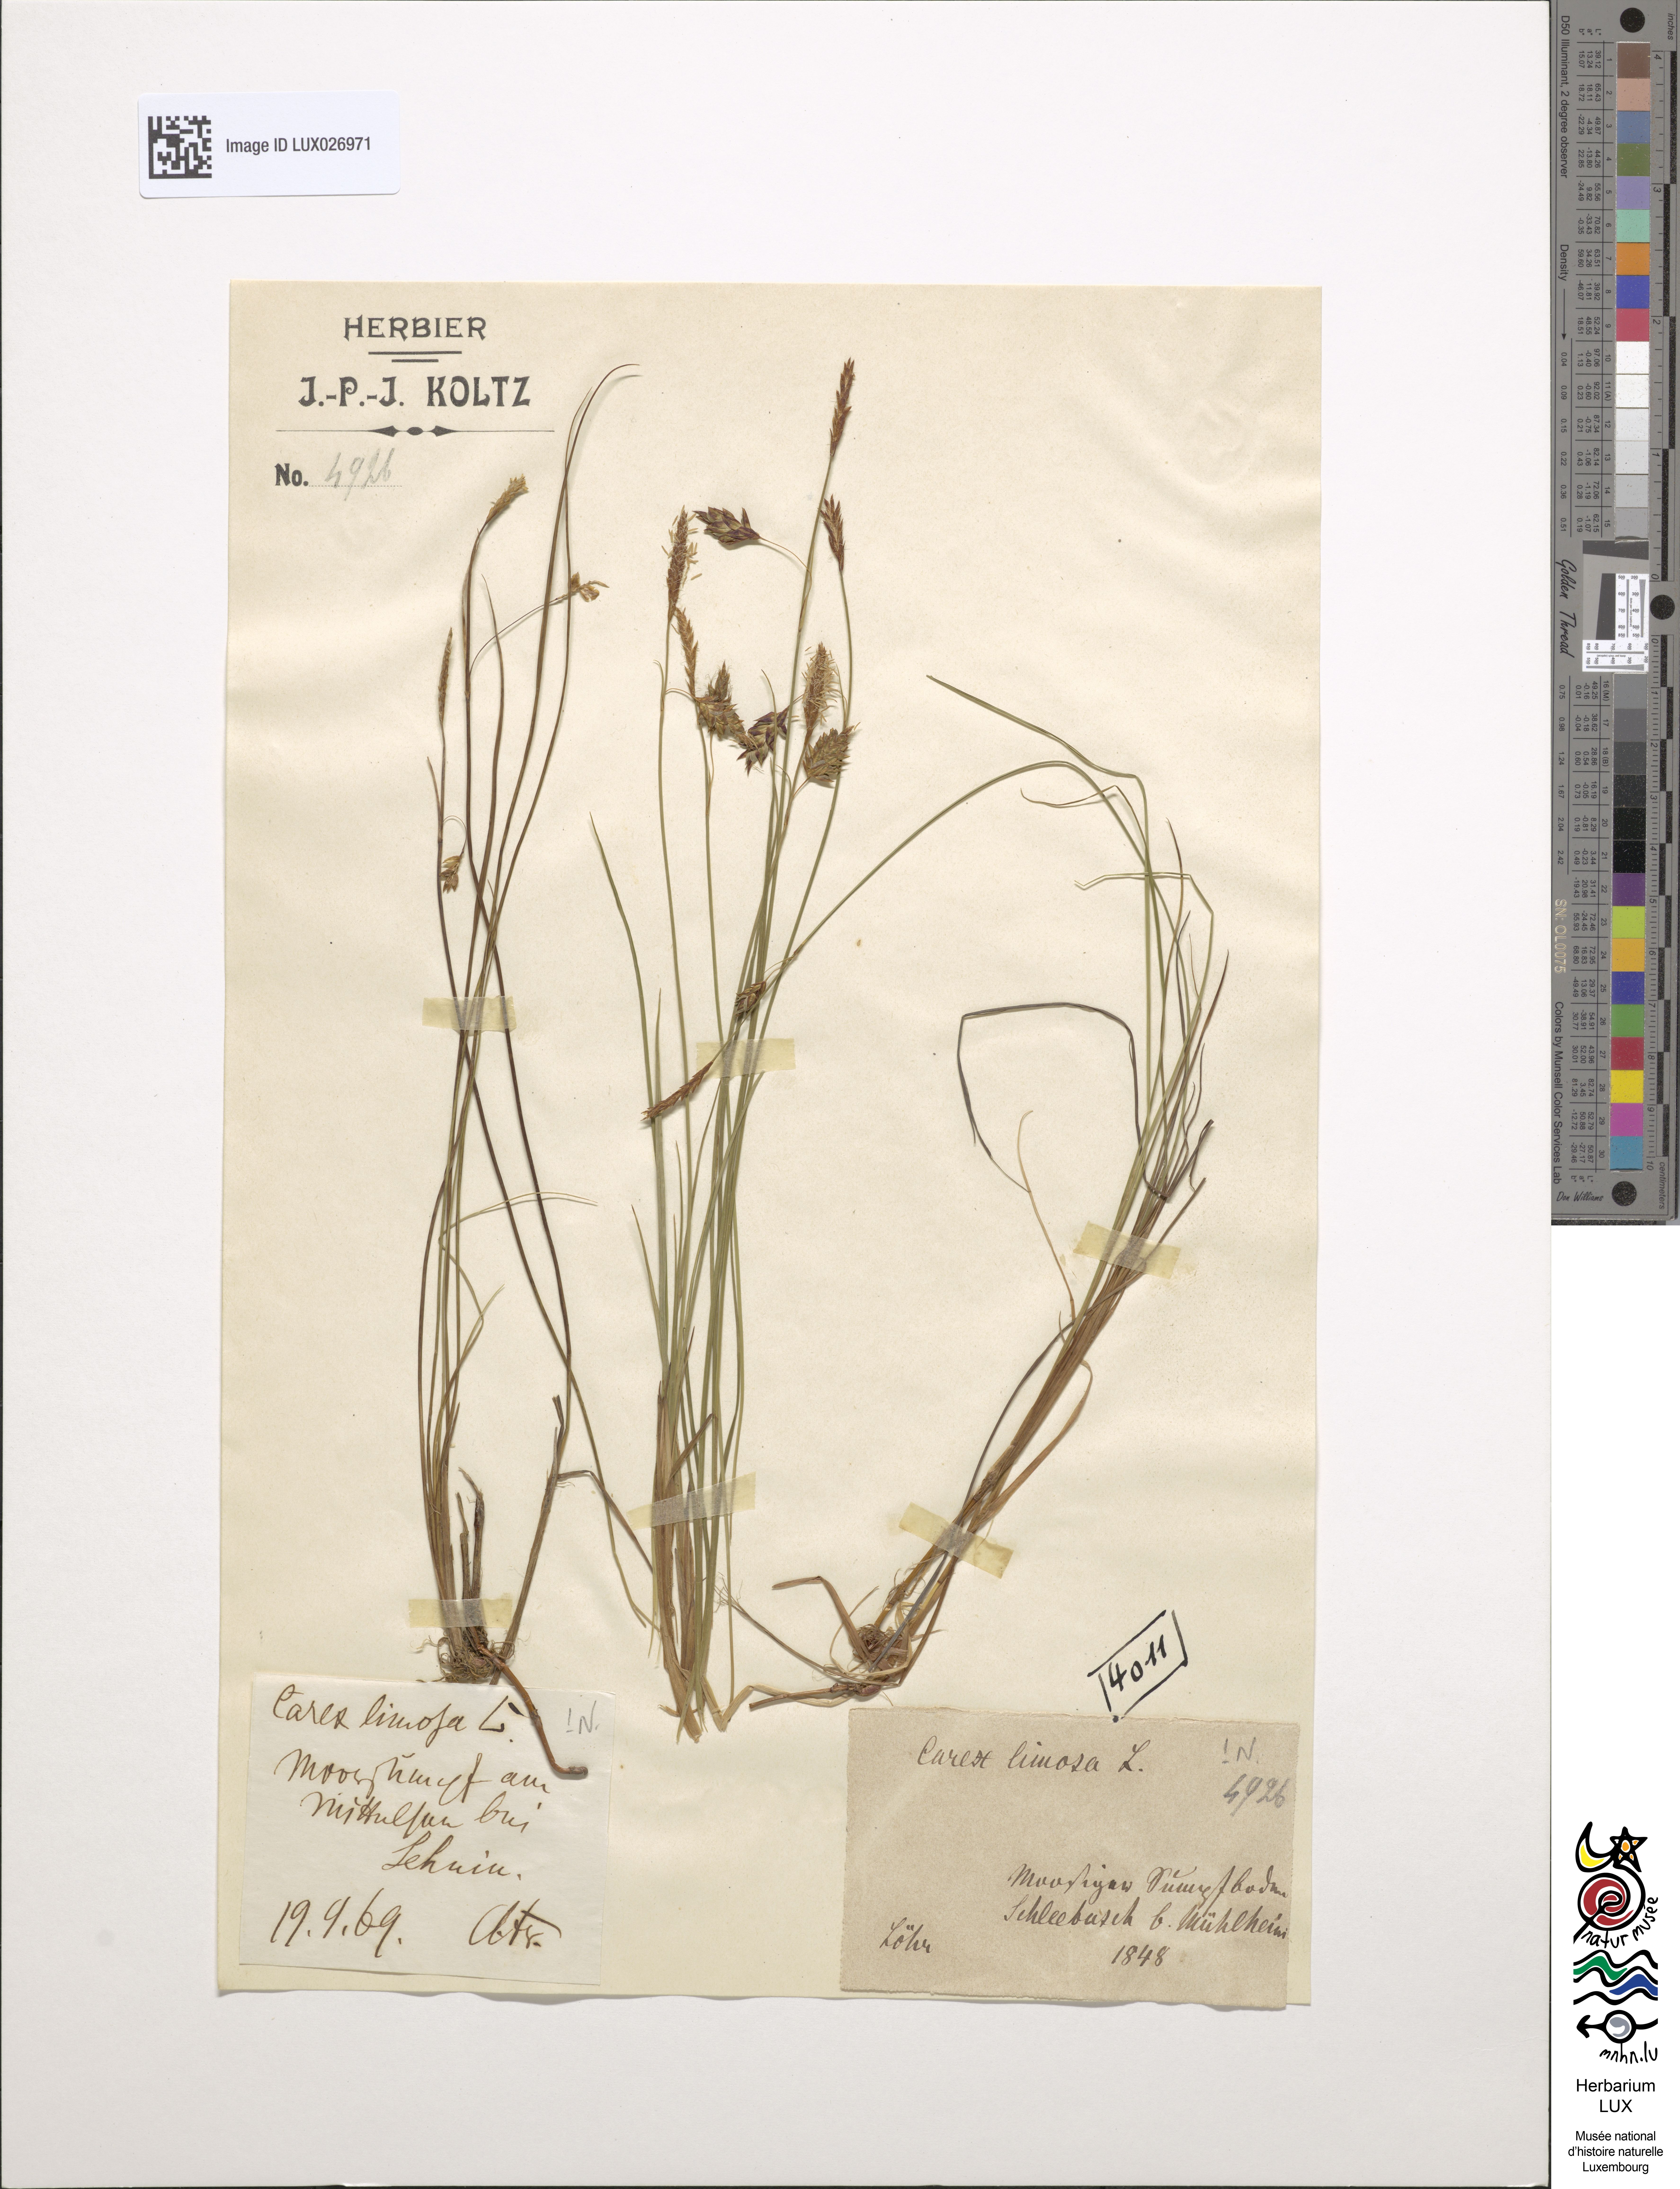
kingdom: Plantae
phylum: Tracheophyta
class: Liliopsida
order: Poales
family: Cyperaceae
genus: Carex
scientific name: Carex limosa
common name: Bog sedge
